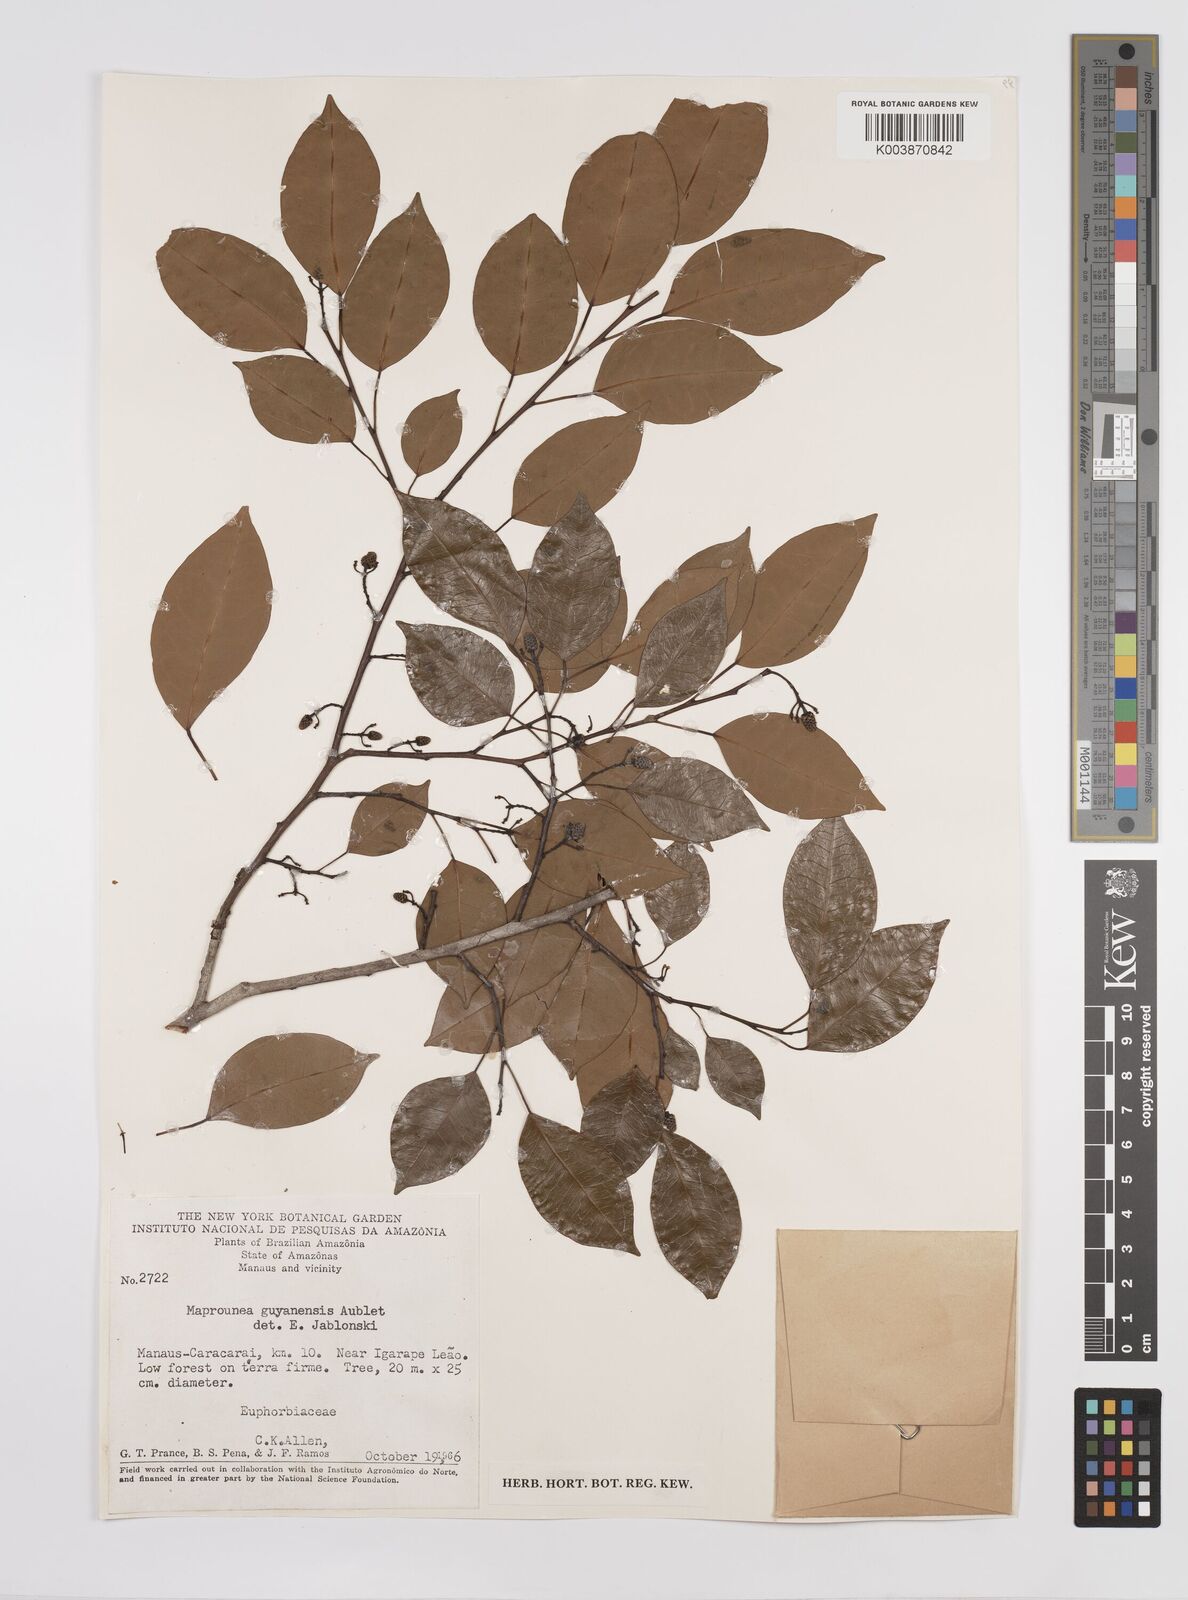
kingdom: Plantae
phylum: Tracheophyta
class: Magnoliopsida
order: Malpighiales
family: Euphorbiaceae
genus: Maprounea
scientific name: Maprounea guianensis
